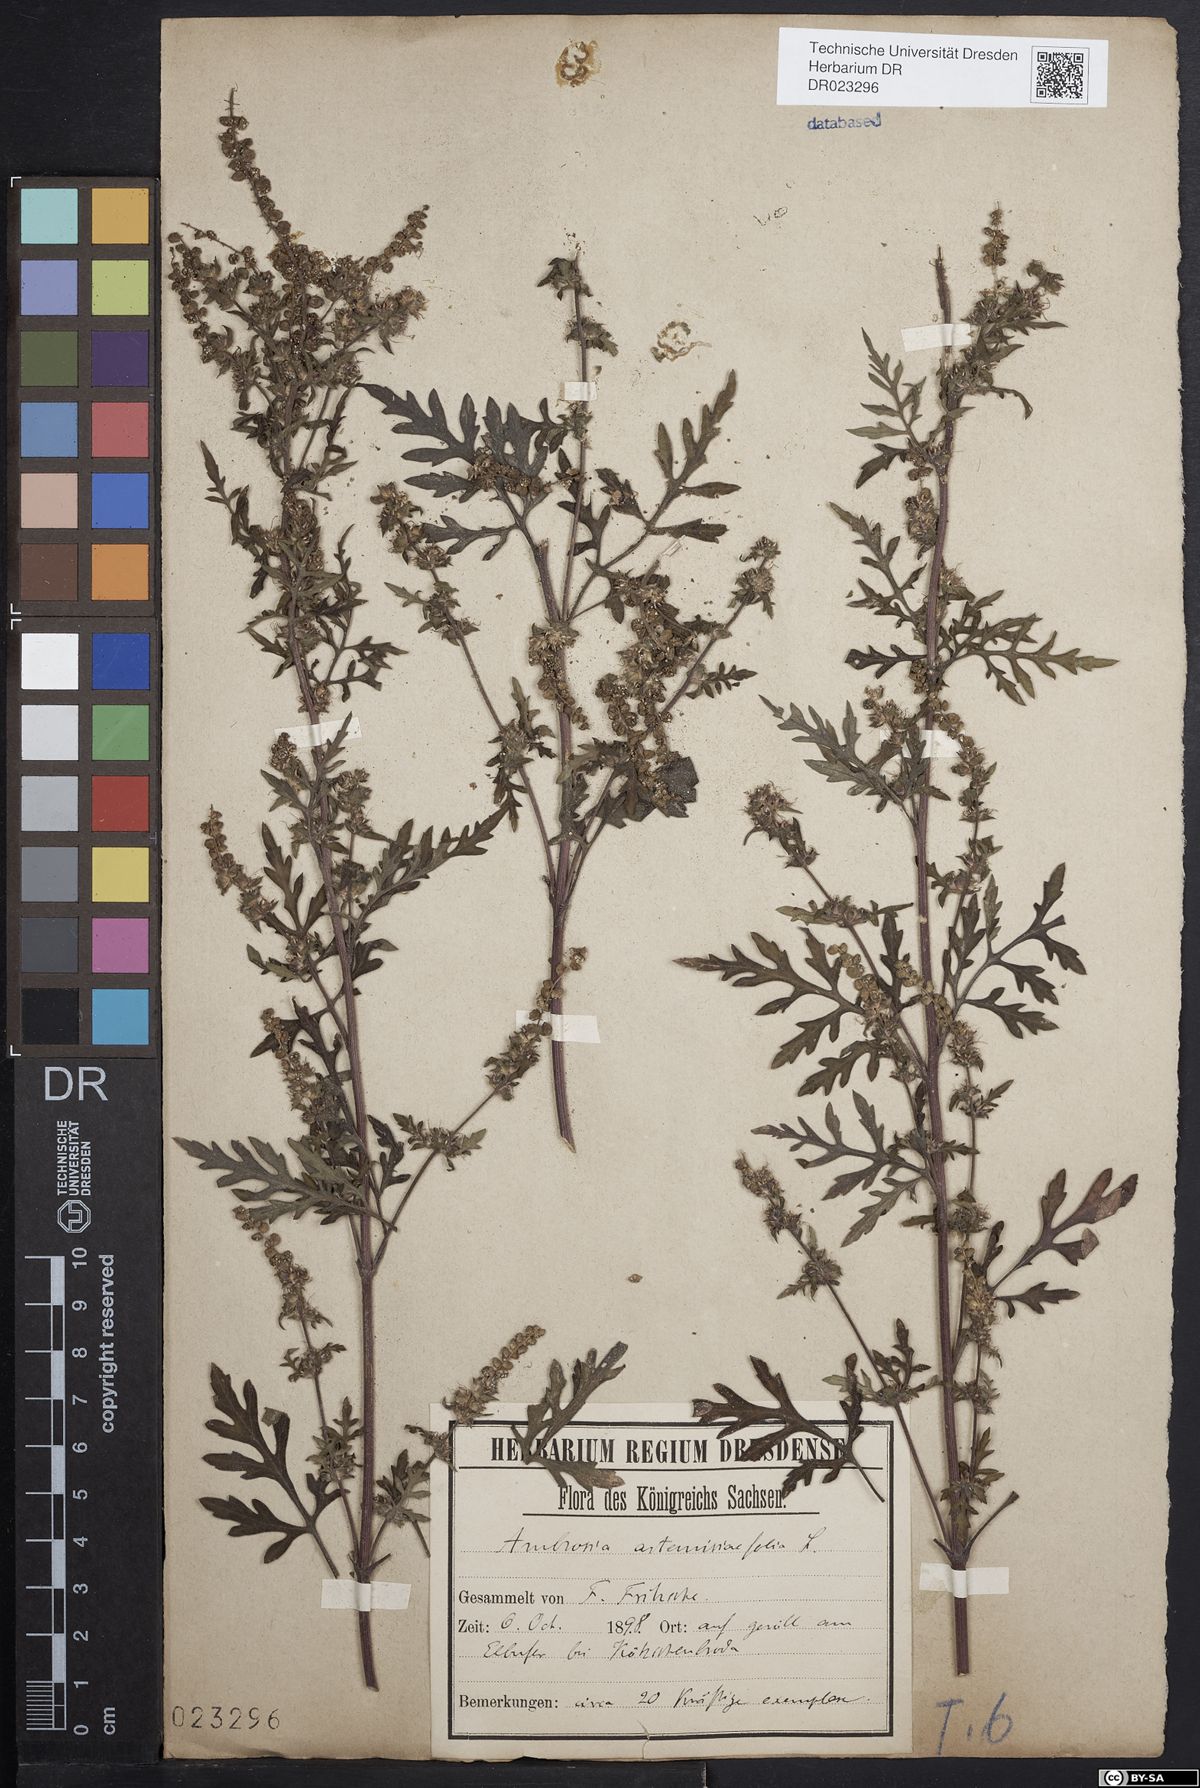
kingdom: Plantae
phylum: Tracheophyta
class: Magnoliopsida
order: Asterales
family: Asteraceae
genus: Ambrosia
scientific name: Ambrosia artemisiifolia
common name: Annual ragweed
